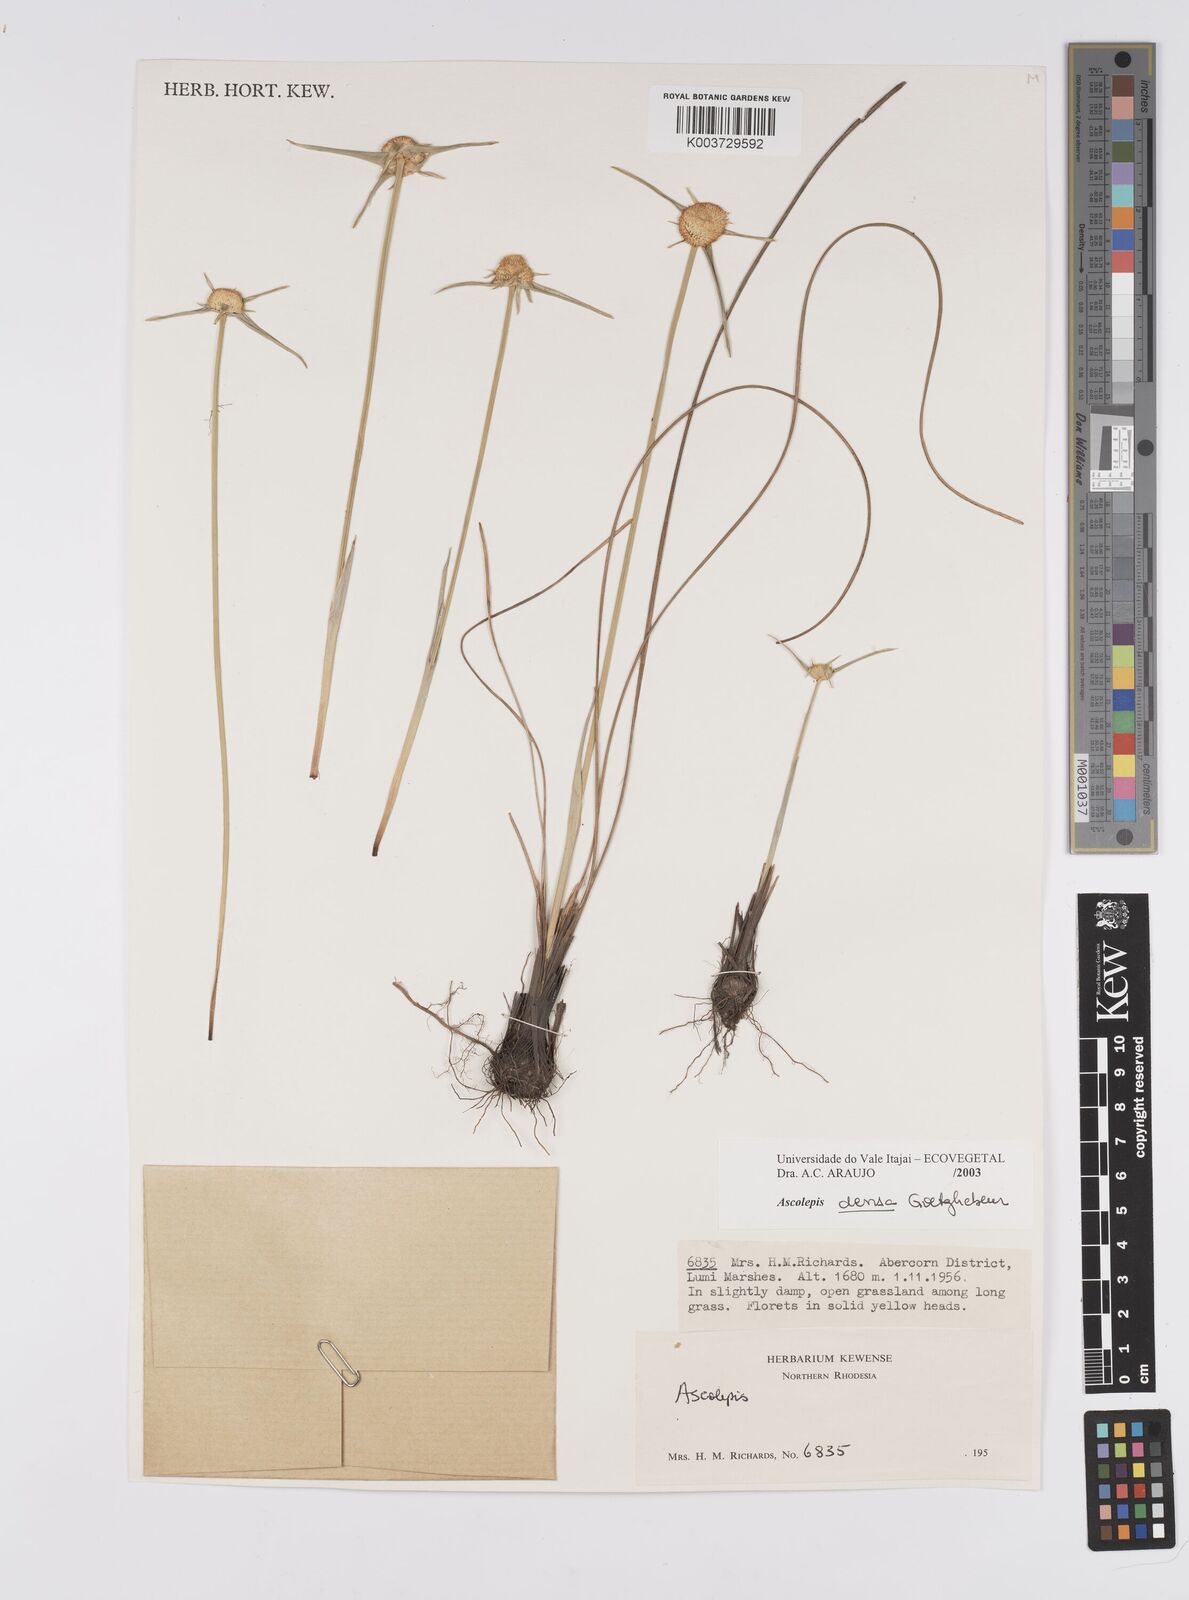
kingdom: Plantae
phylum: Tracheophyta
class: Liliopsida
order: Poales
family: Cyperaceae
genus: Cyperus
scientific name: Cyperus
